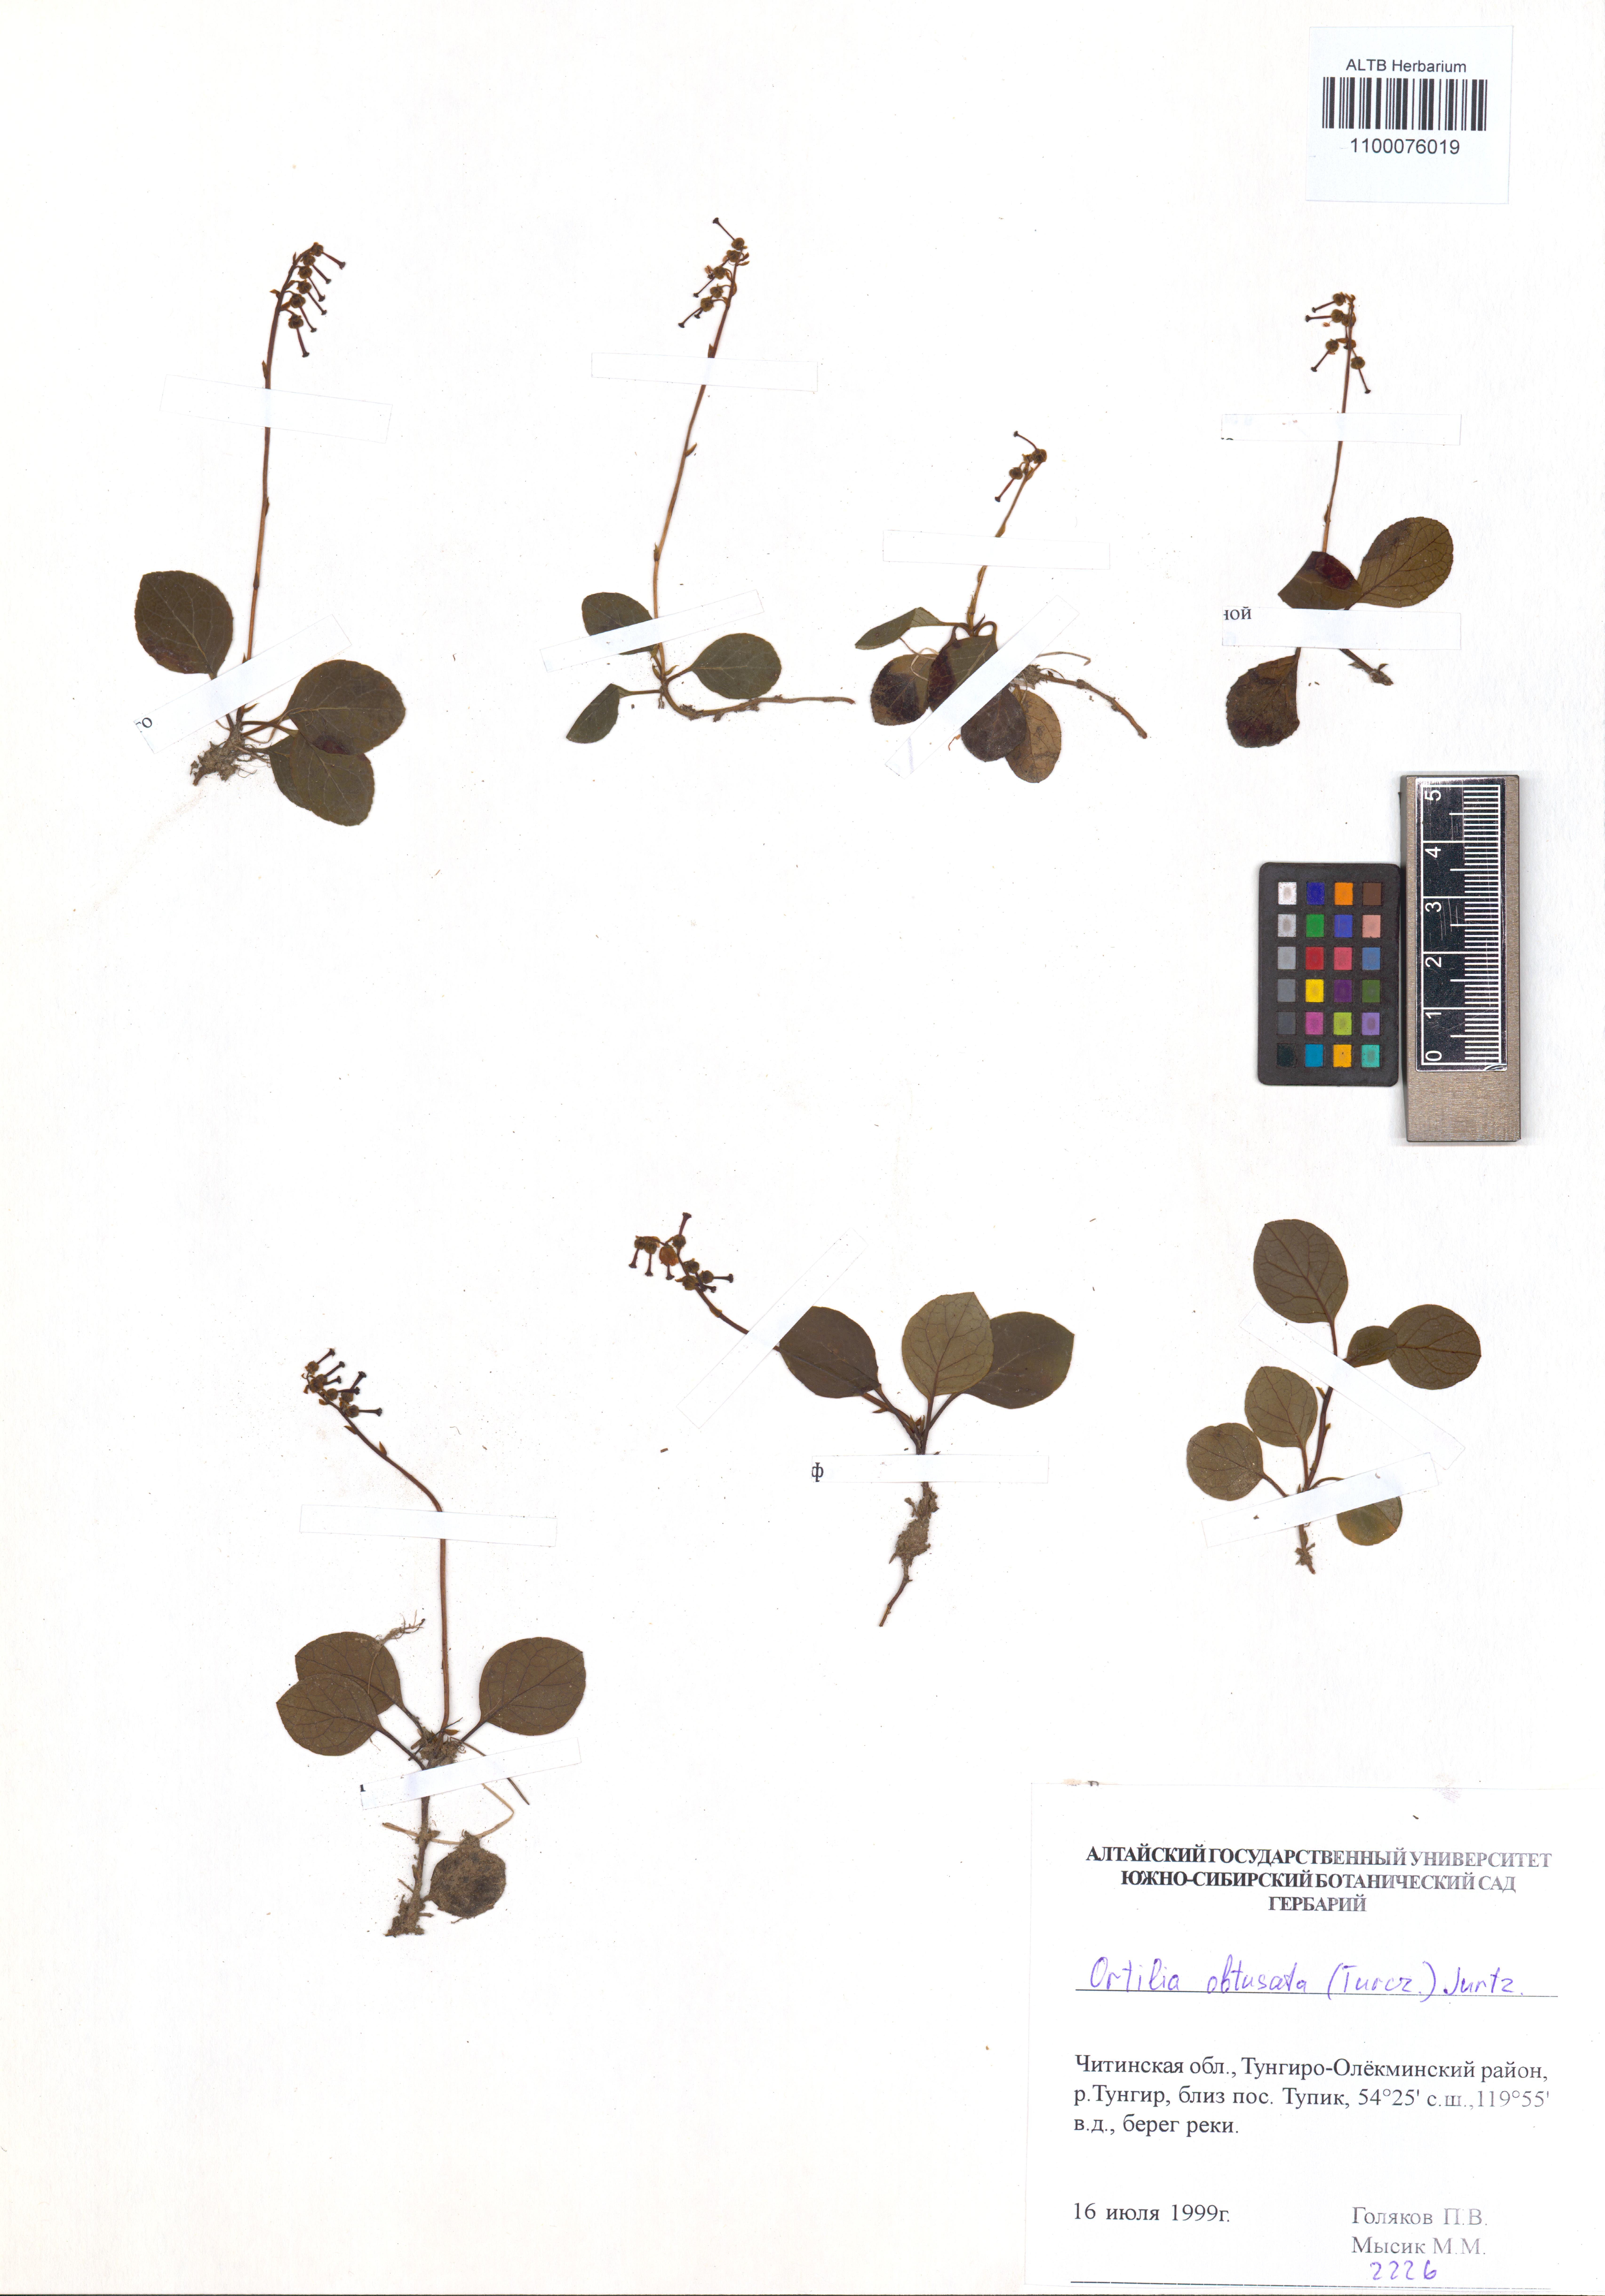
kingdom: Plantae
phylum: Tracheophyta
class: Magnoliopsida
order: Ericales
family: Ericaceae
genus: Orthilia
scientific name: Orthilia secunda
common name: One-sided orthilia
